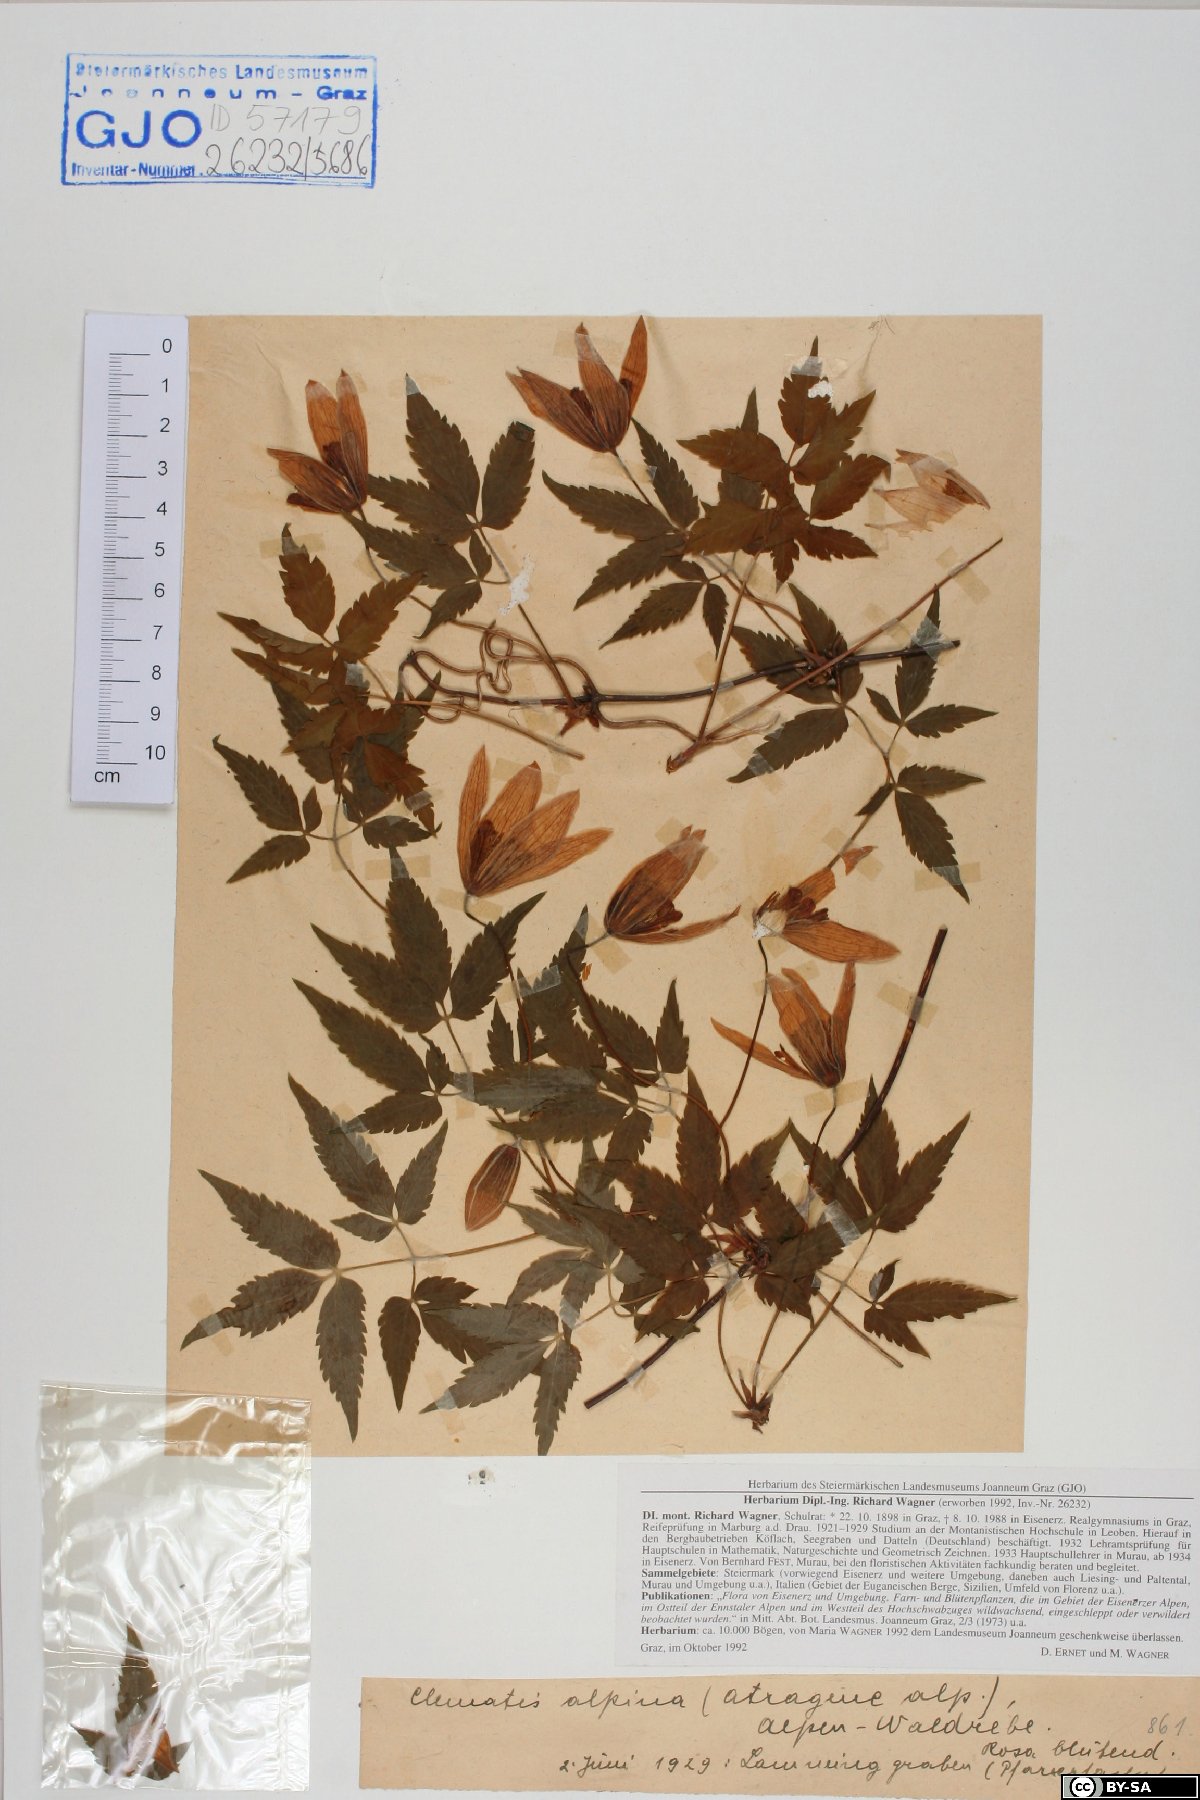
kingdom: Plantae
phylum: Tracheophyta
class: Magnoliopsida
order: Ranunculales
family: Ranunculaceae
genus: Clematis
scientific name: Clematis alpina
